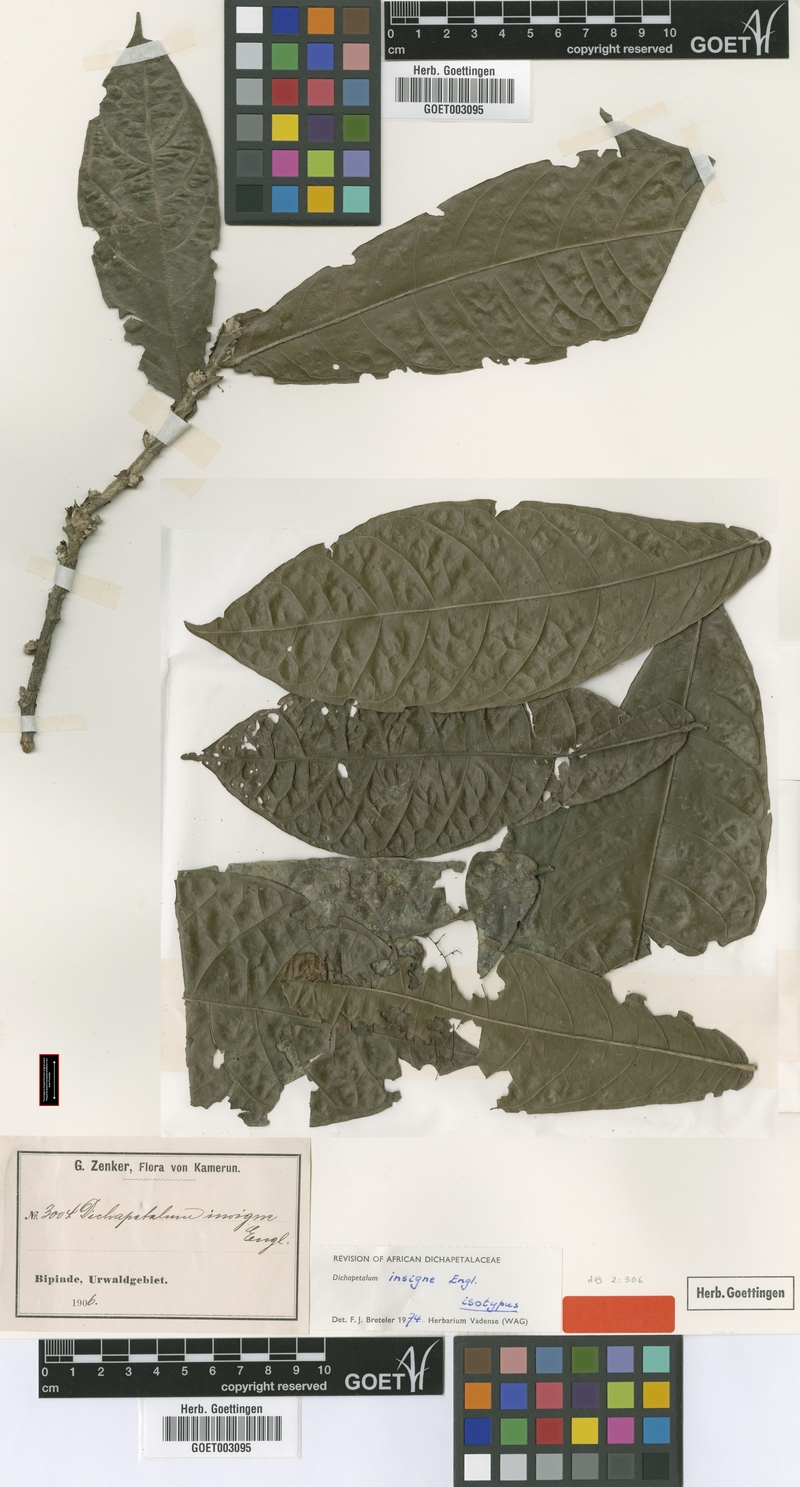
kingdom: Plantae
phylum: Tracheophyta
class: Magnoliopsida
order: Malpighiales
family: Dichapetalaceae
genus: Dichapetalum
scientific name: Dichapetalum insigne
